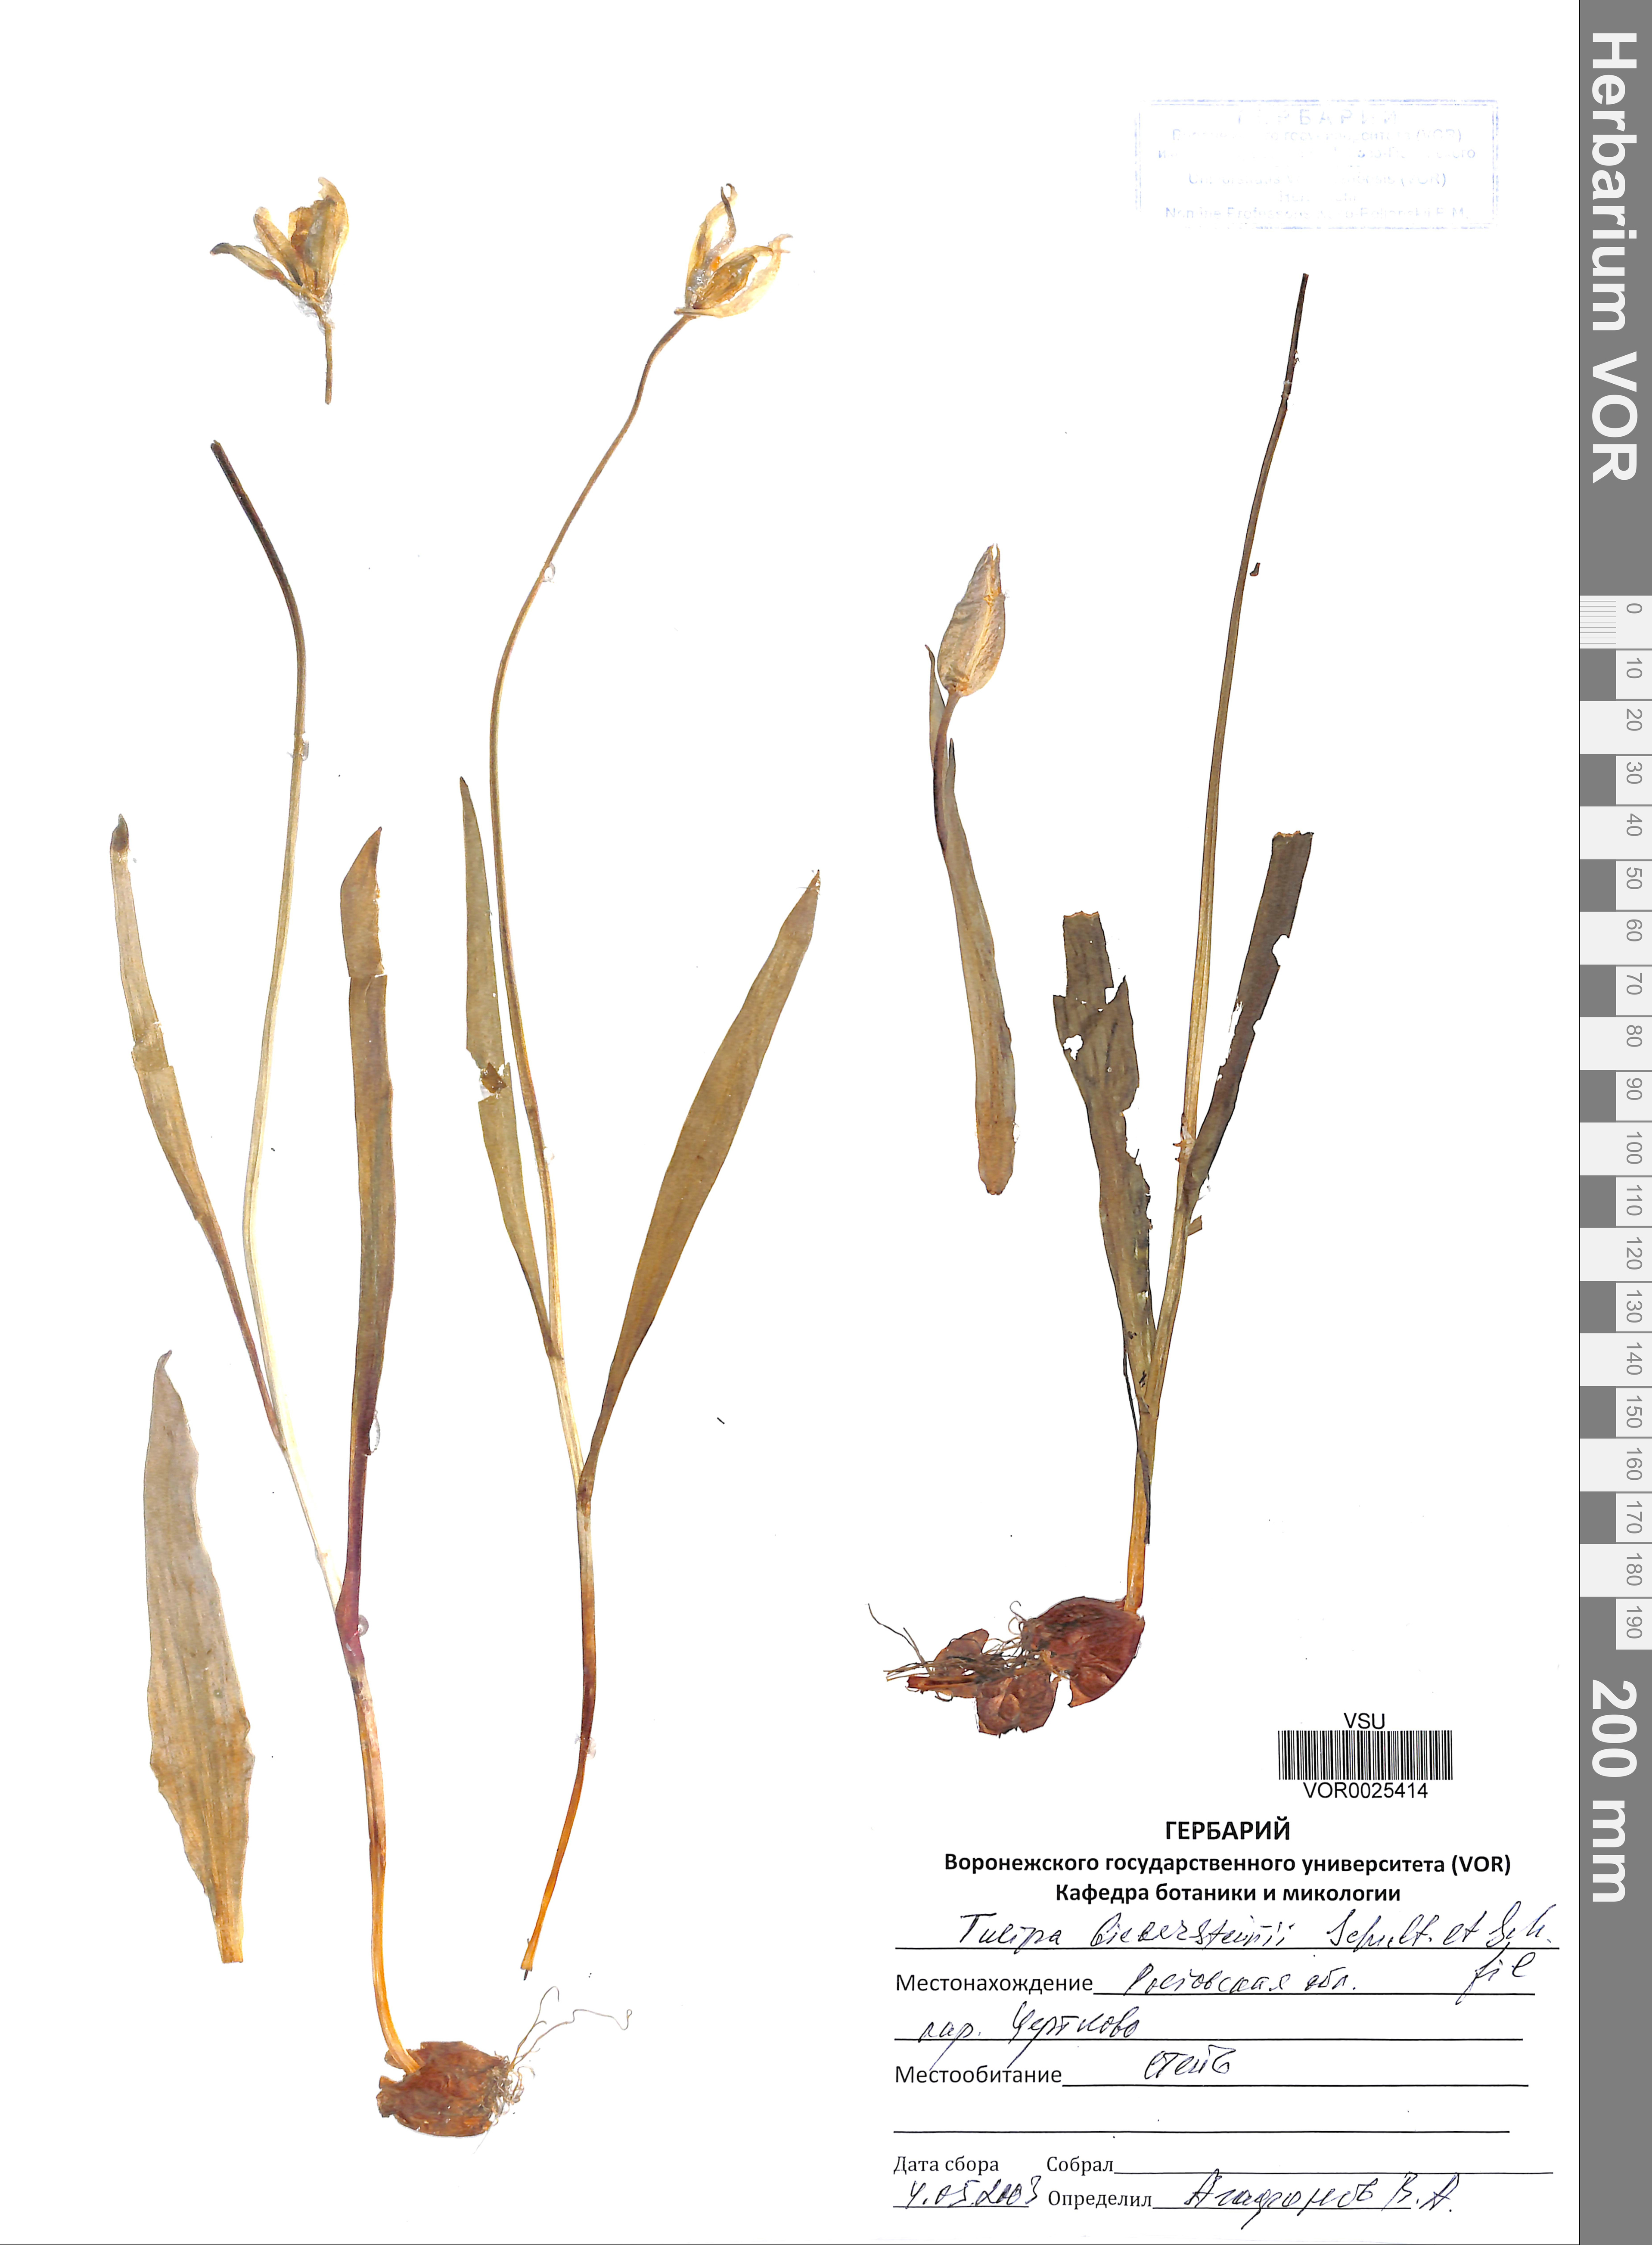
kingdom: Plantae
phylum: Tracheophyta
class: Liliopsida
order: Liliales
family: Liliaceae
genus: Tulipa
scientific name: Tulipa sylvestris
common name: Wild tulip
